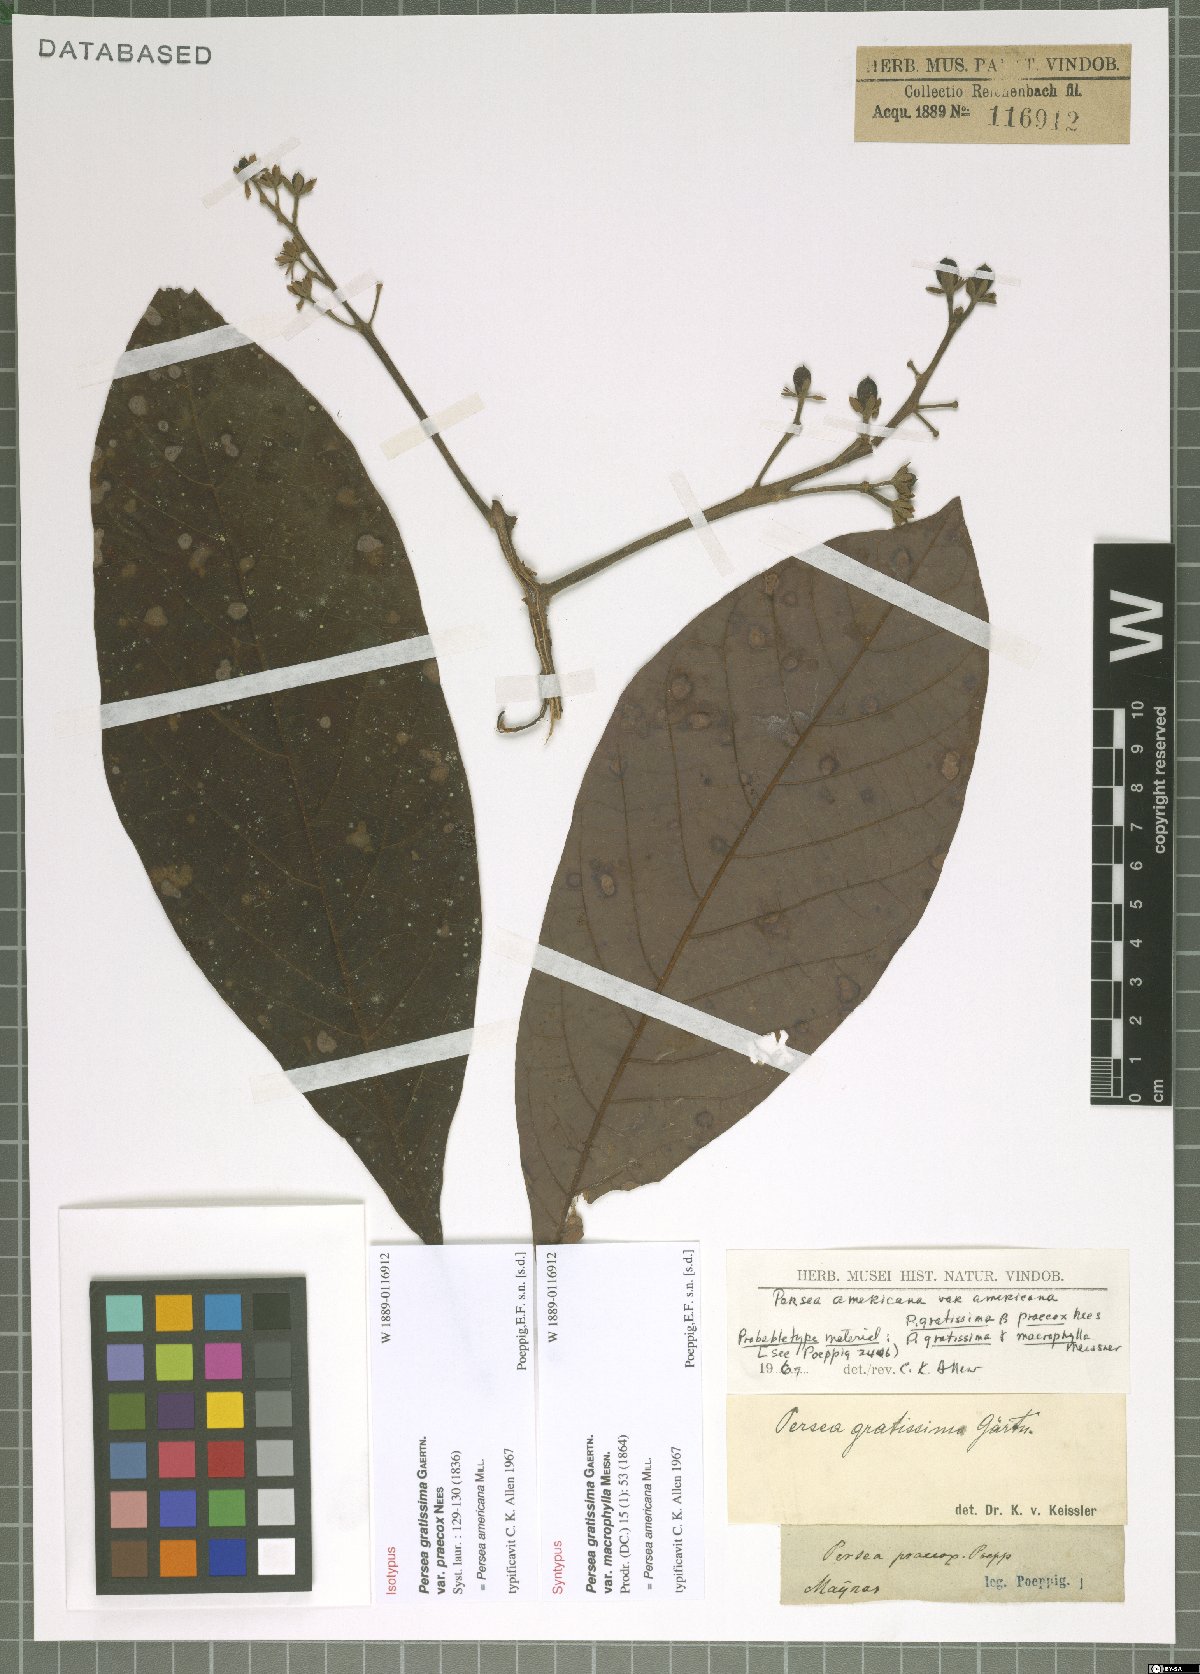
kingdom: Plantae
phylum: Tracheophyta
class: Magnoliopsida
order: Laurales
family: Lauraceae
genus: Persea
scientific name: Persea americana
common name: Avocado
